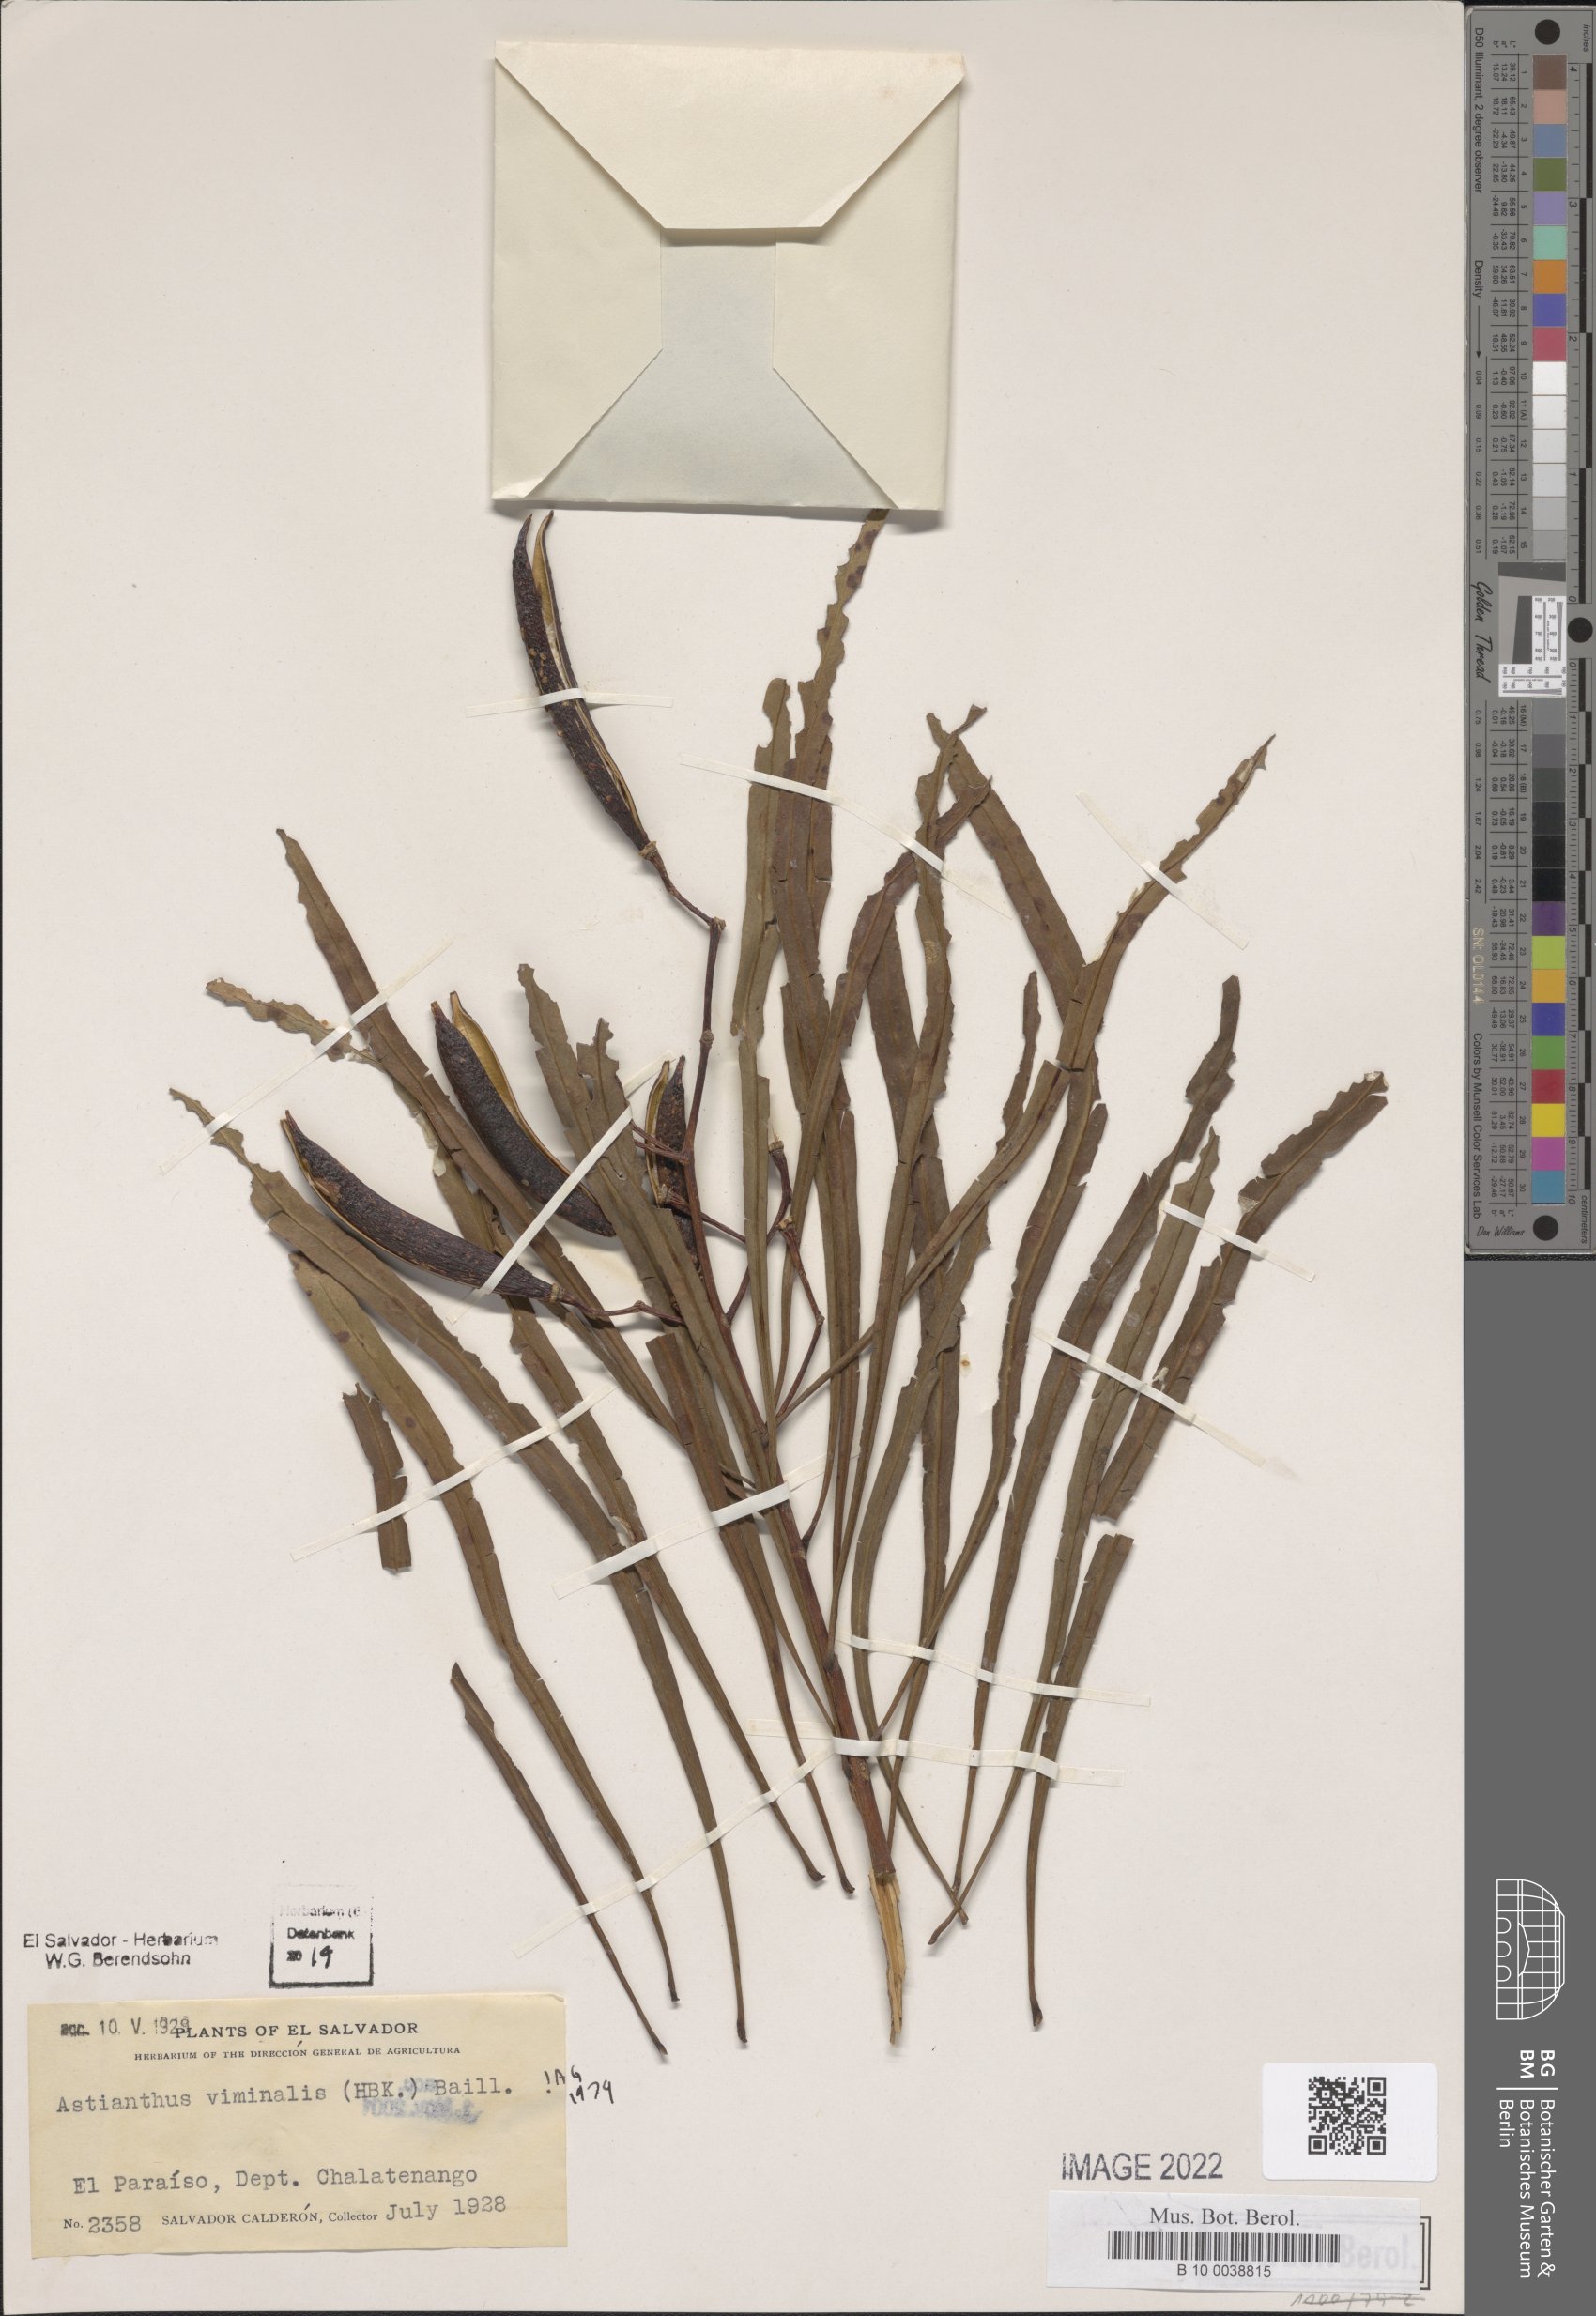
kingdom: Plantae
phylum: Tracheophyta
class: Magnoliopsida
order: Lamiales
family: Bignoniaceae
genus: Astianthus
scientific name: Astianthus viminalis
